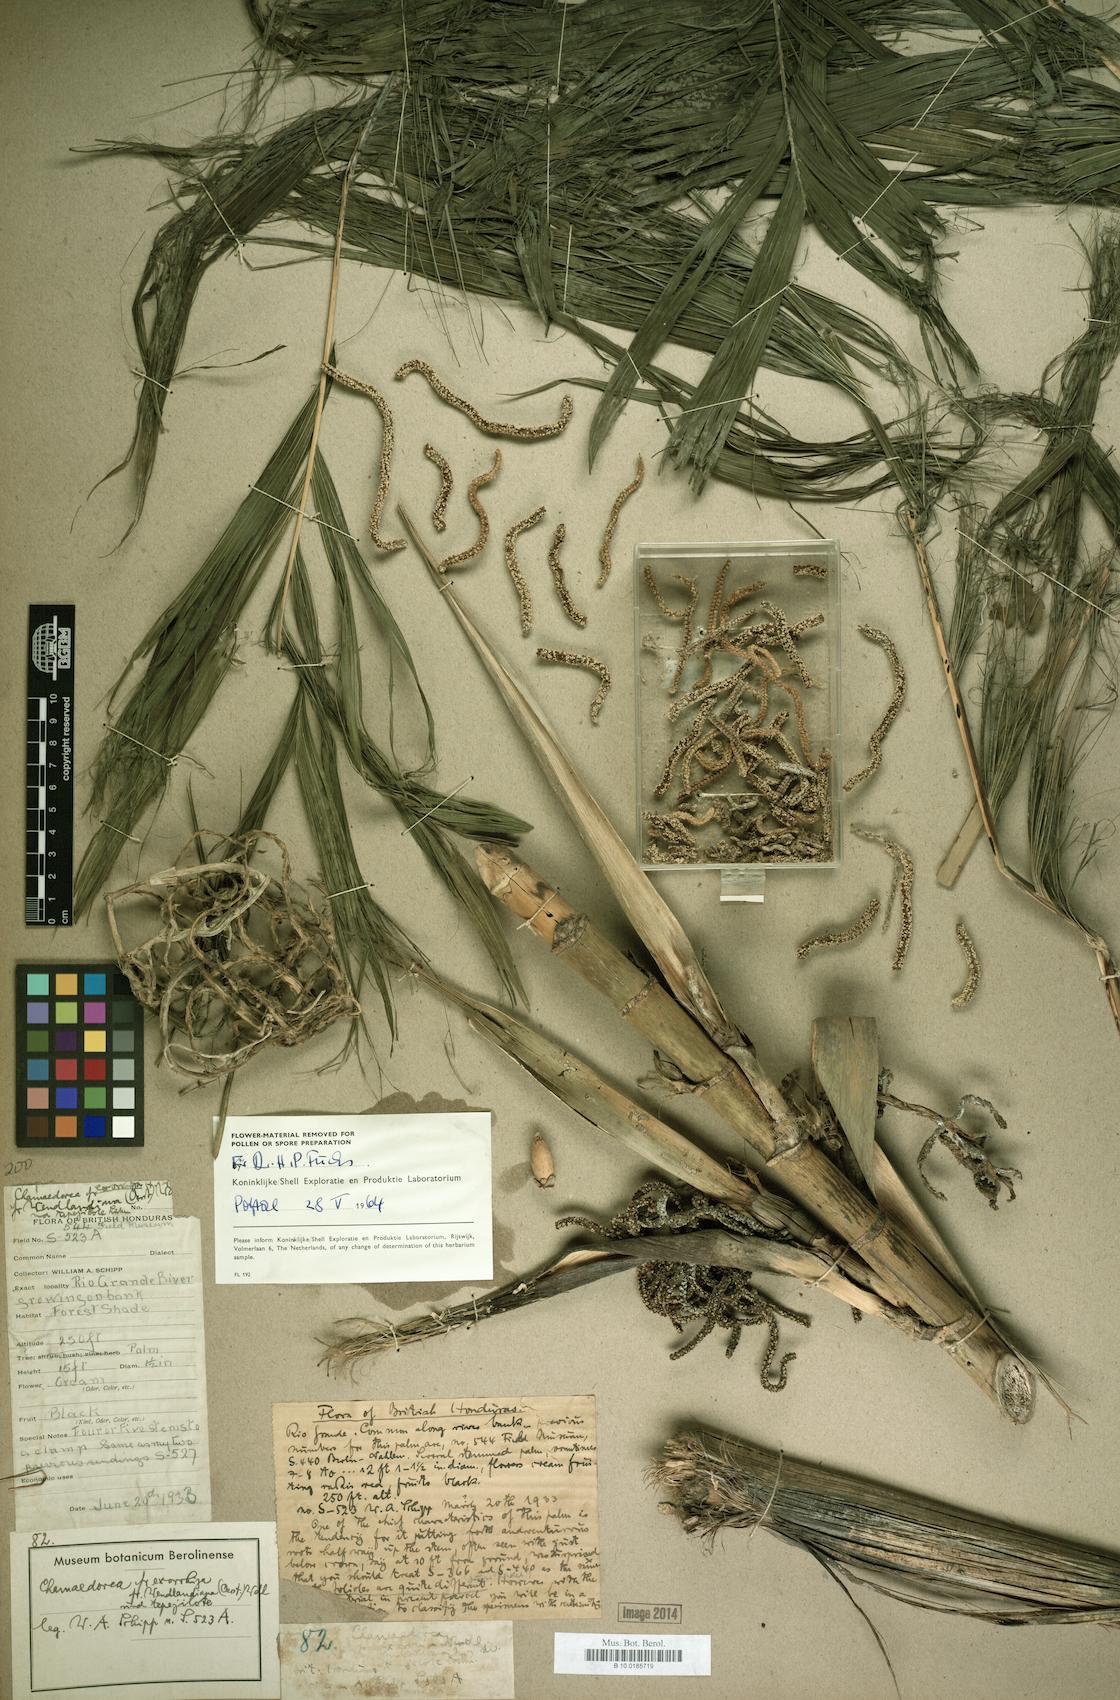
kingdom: Plantae
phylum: Tracheophyta
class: Liliopsida
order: Arecales
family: Arecaceae
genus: Chamaedorea
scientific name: Chamaedorea
